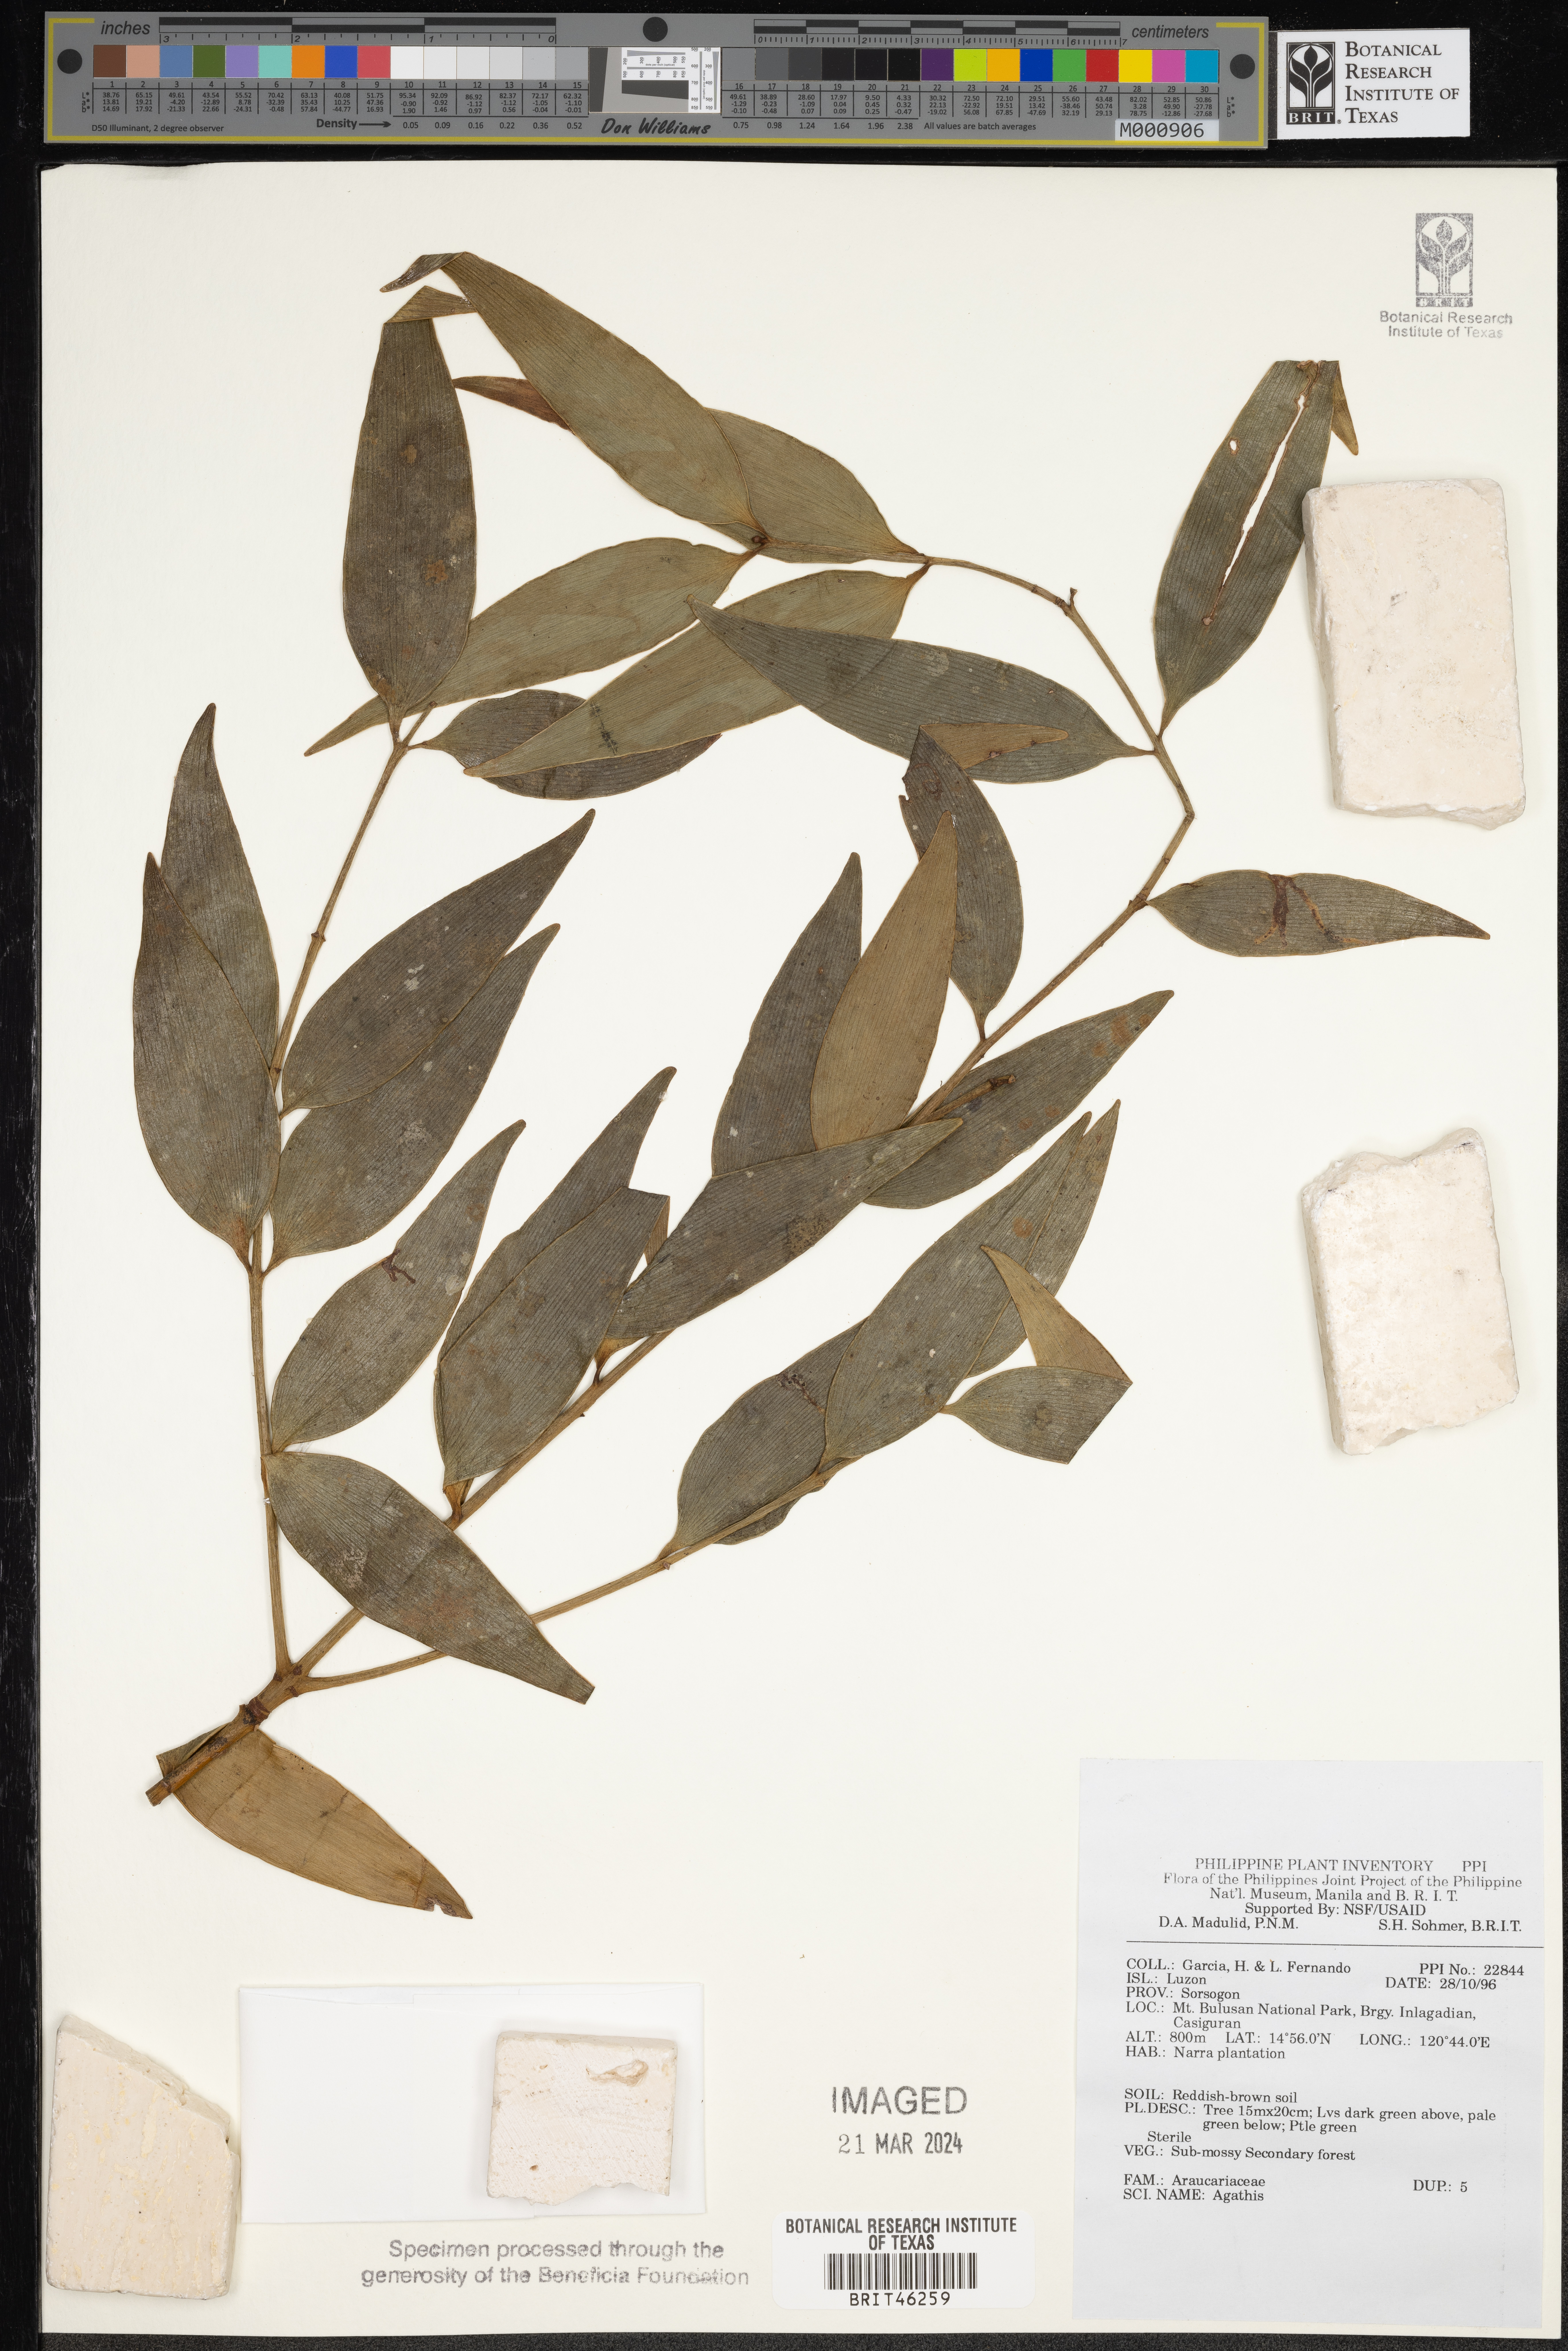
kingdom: Plantae
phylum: Tracheophyta
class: Pinopsida
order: Pinales
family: Araucariaceae
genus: Agathis
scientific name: Agathis
